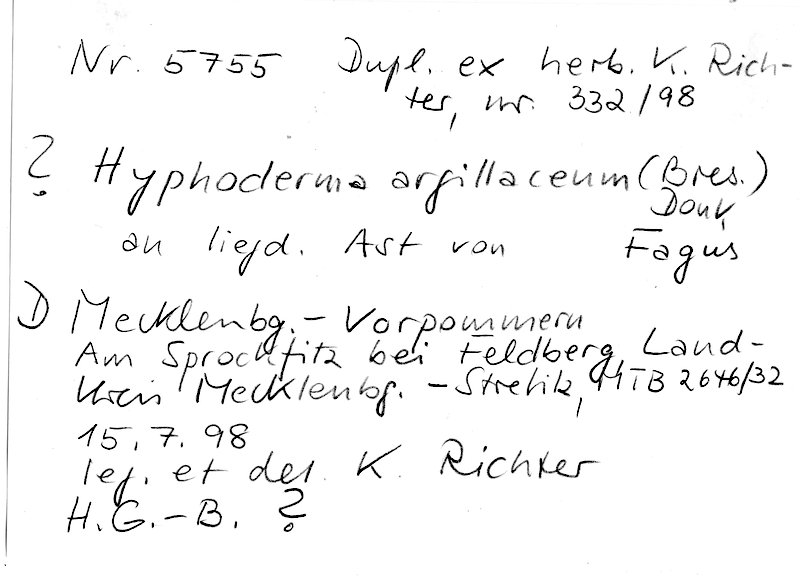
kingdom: Plantae
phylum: Tracheophyta
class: Magnoliopsida
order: Fagales
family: Fagaceae
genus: Fagus
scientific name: Fagus sylvatica
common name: Beech
